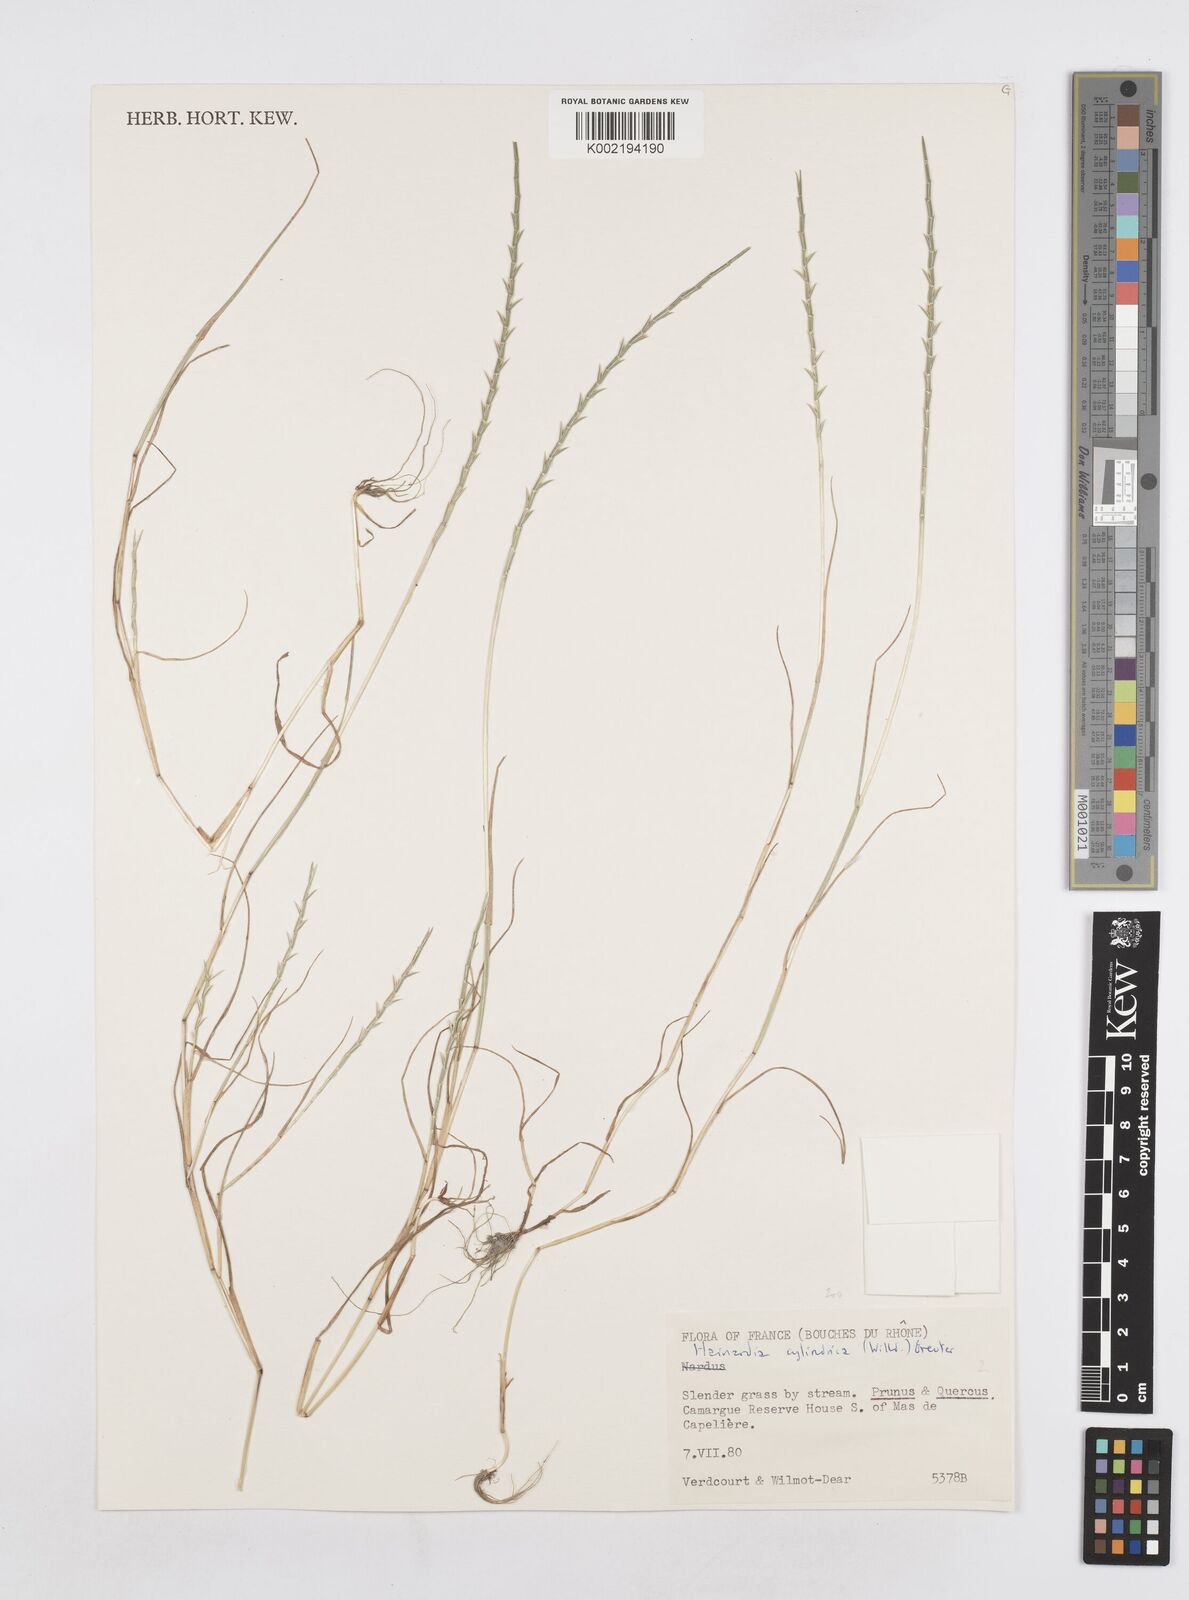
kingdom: Plantae
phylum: Tracheophyta
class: Liliopsida
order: Poales
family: Poaceae
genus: Parapholis
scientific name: Parapholis cylindrica
